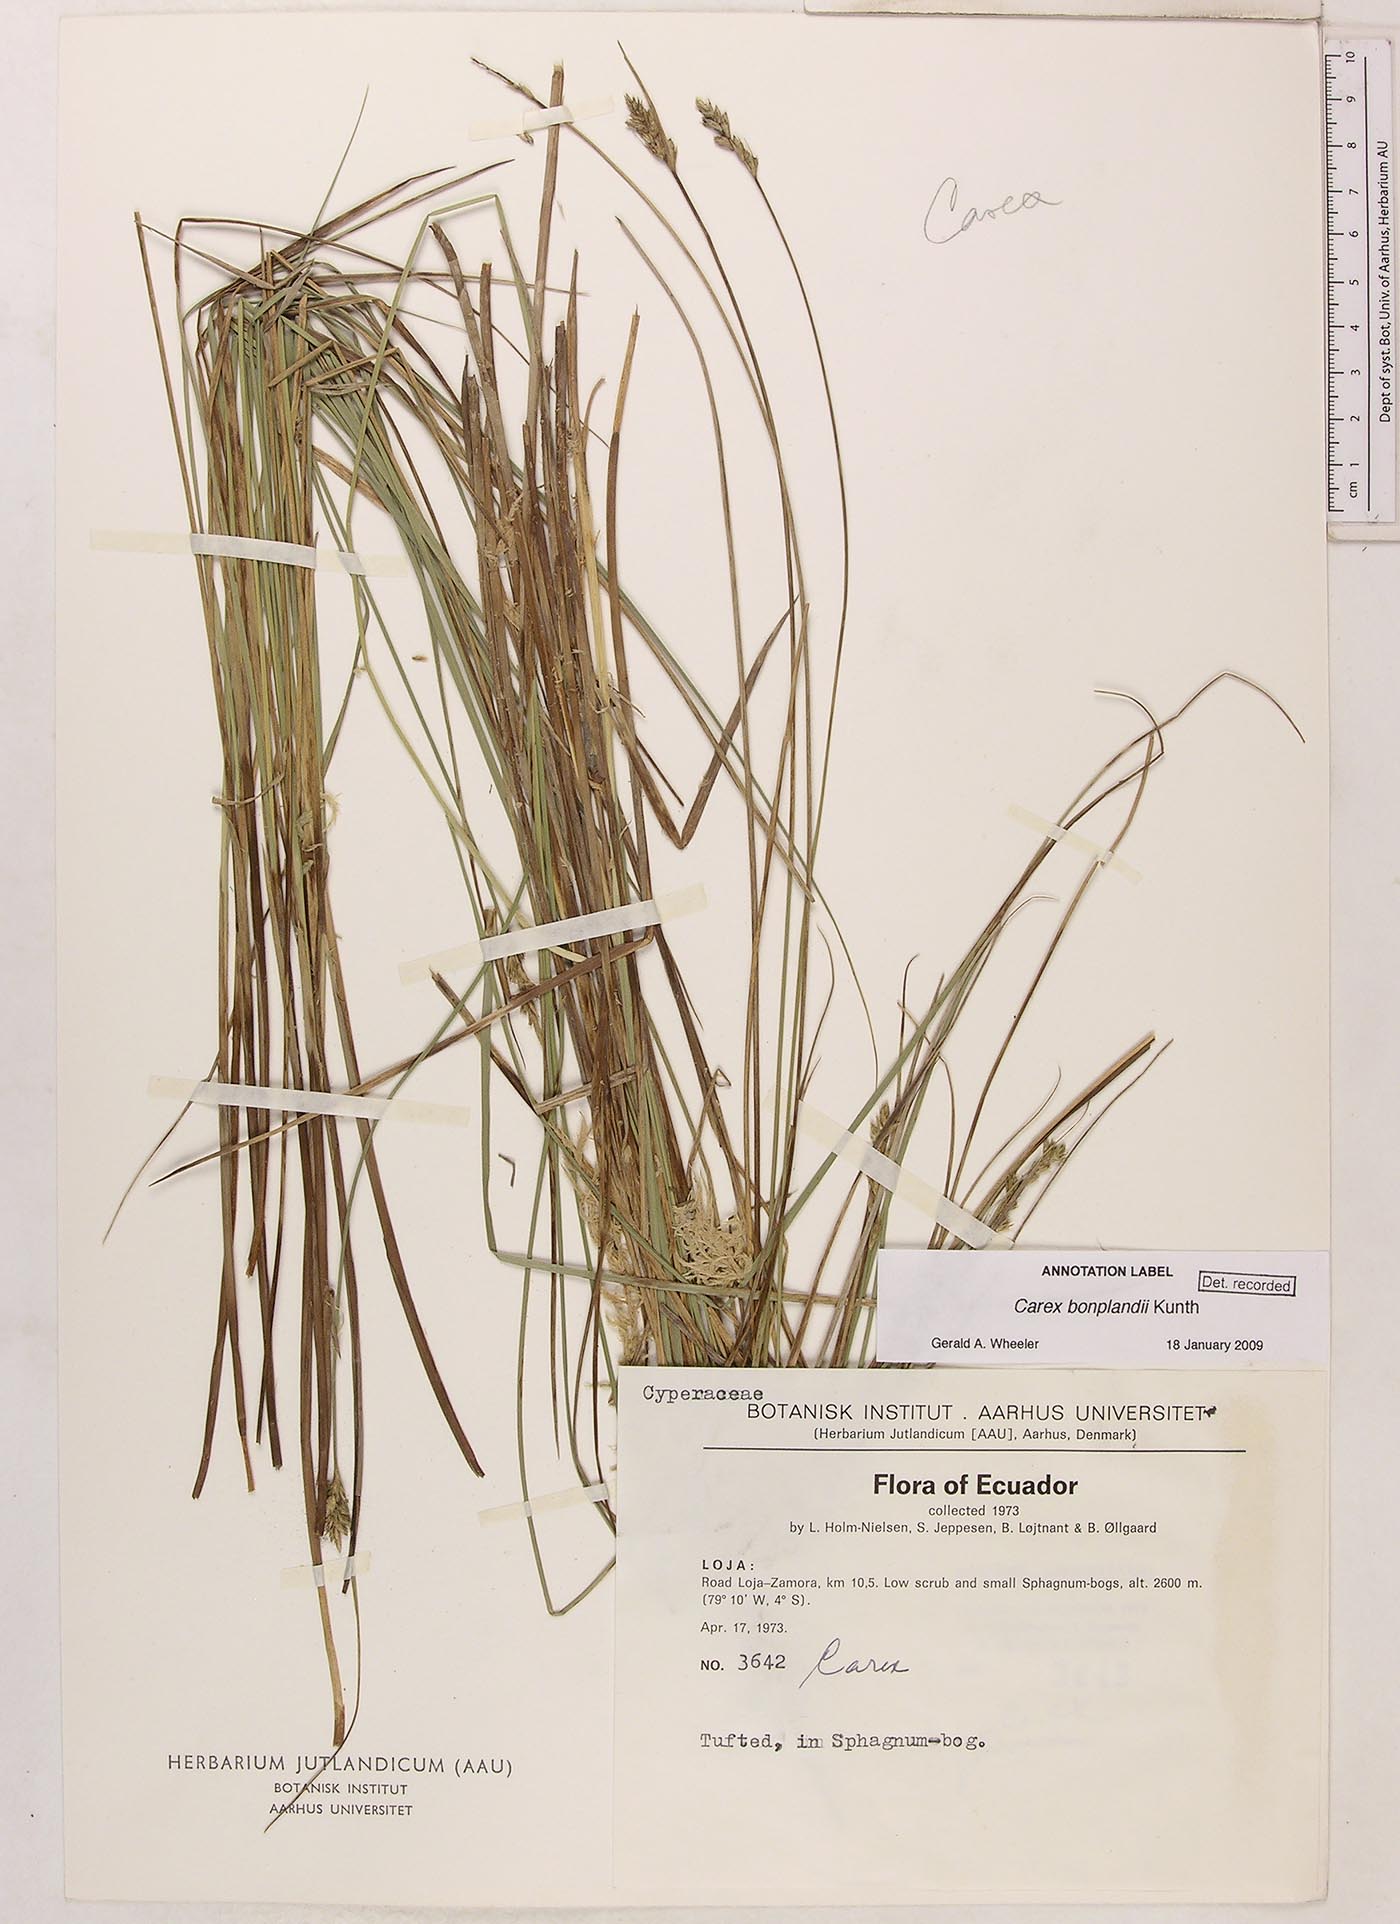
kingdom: Plantae
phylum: Tracheophyta
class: Liliopsida
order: Poales
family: Cyperaceae
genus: Carex
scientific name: Carex bonplandii
